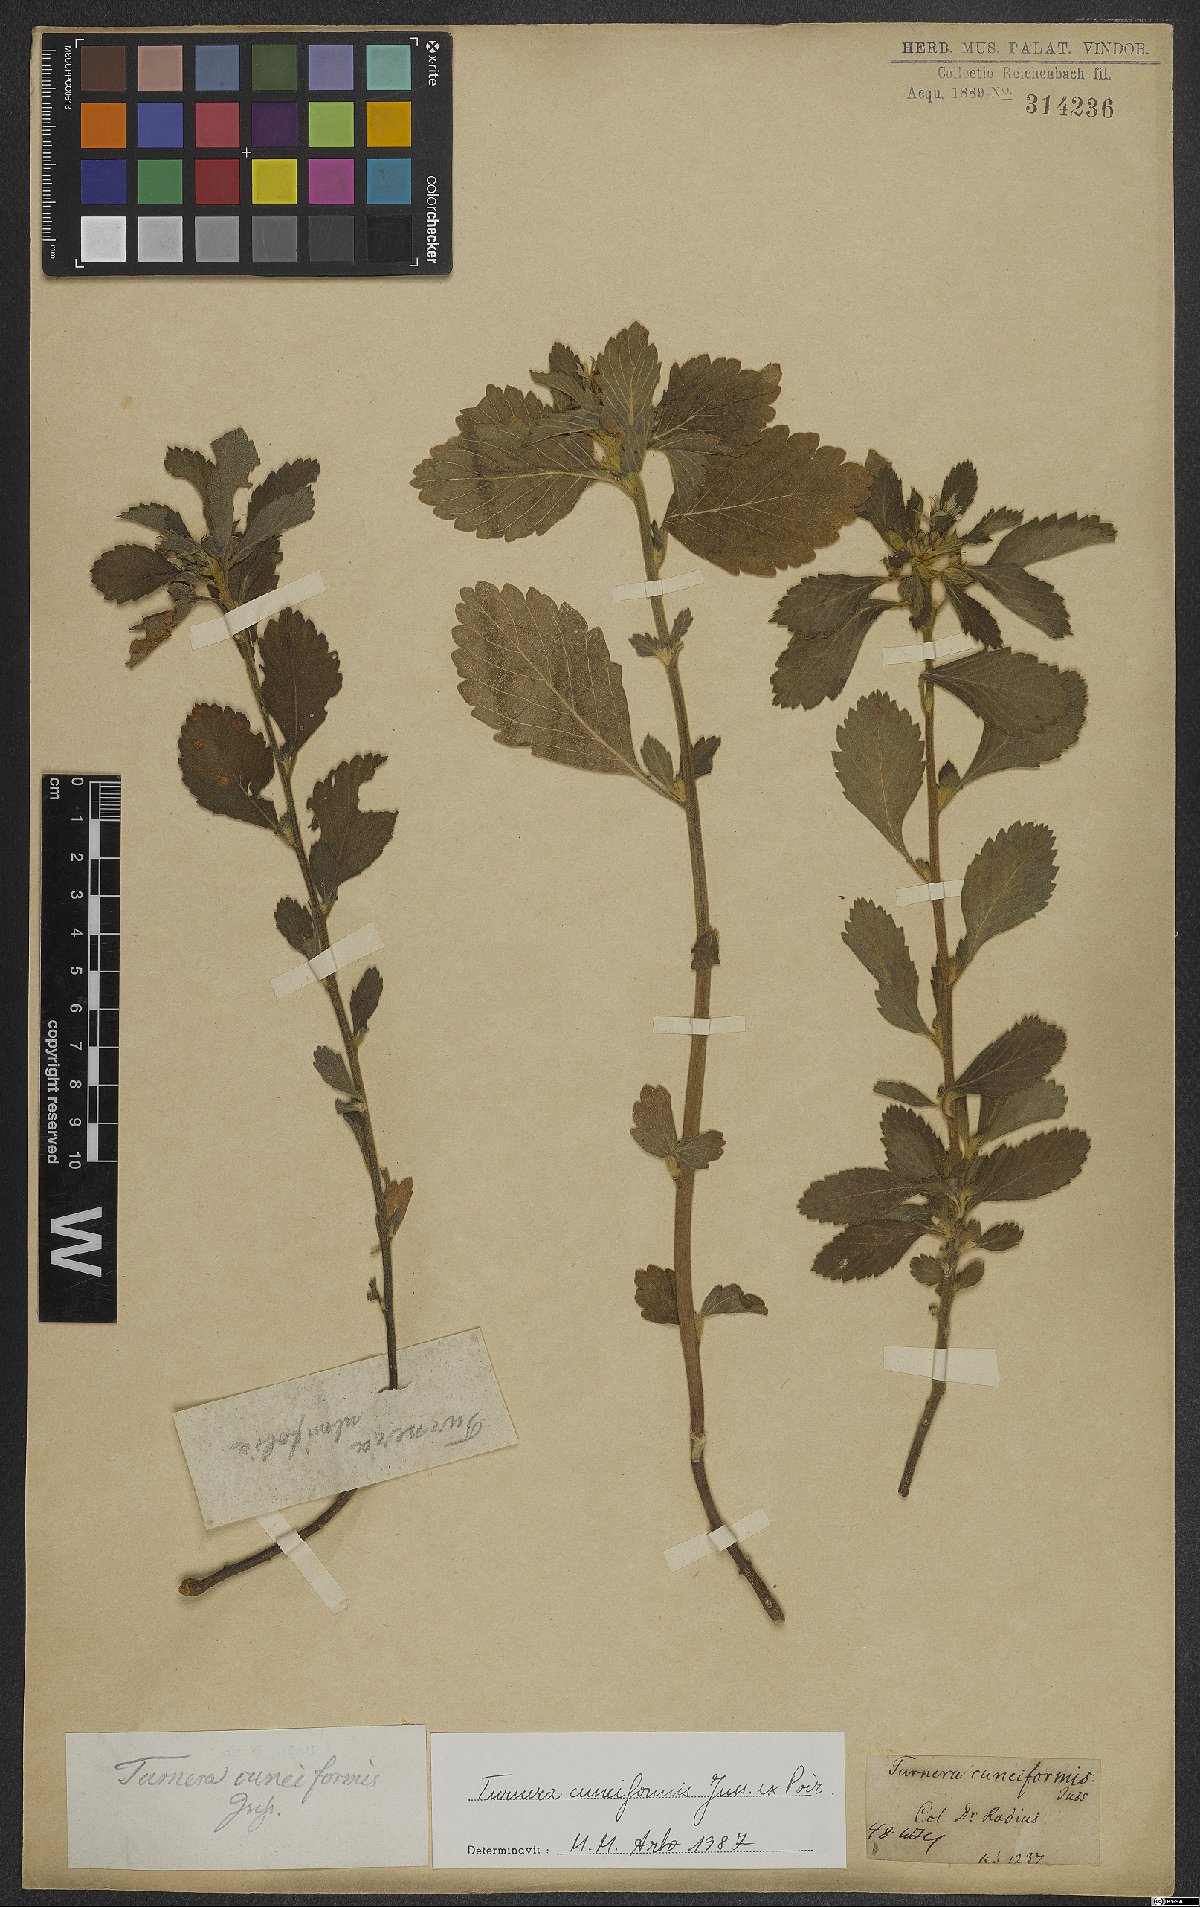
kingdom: Plantae
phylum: Tracheophyta
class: Magnoliopsida
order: Malpighiales
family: Turneraceae
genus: Turnera
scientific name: Turnera cuneiformis
